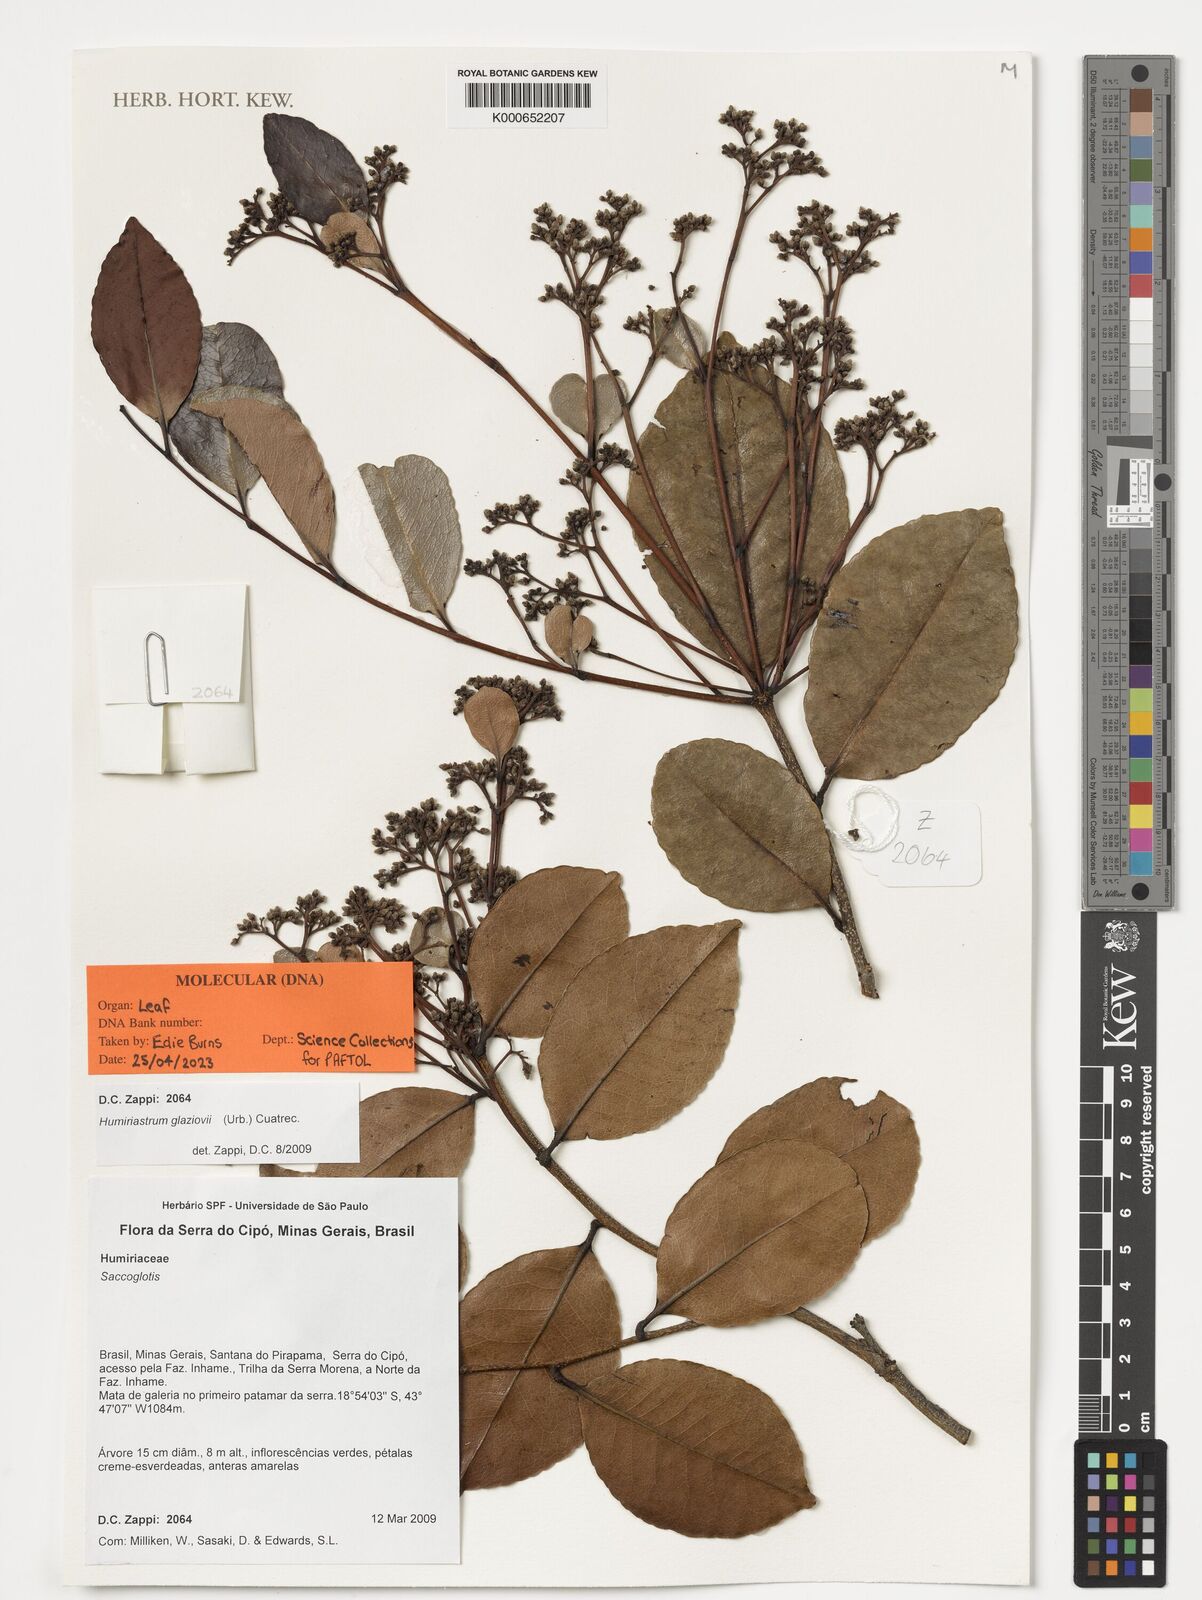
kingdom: Plantae
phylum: Tracheophyta
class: Magnoliopsida
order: Malpighiales
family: Humiriaceae
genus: Humiriastrum
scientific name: Humiriastrum glaziovii
